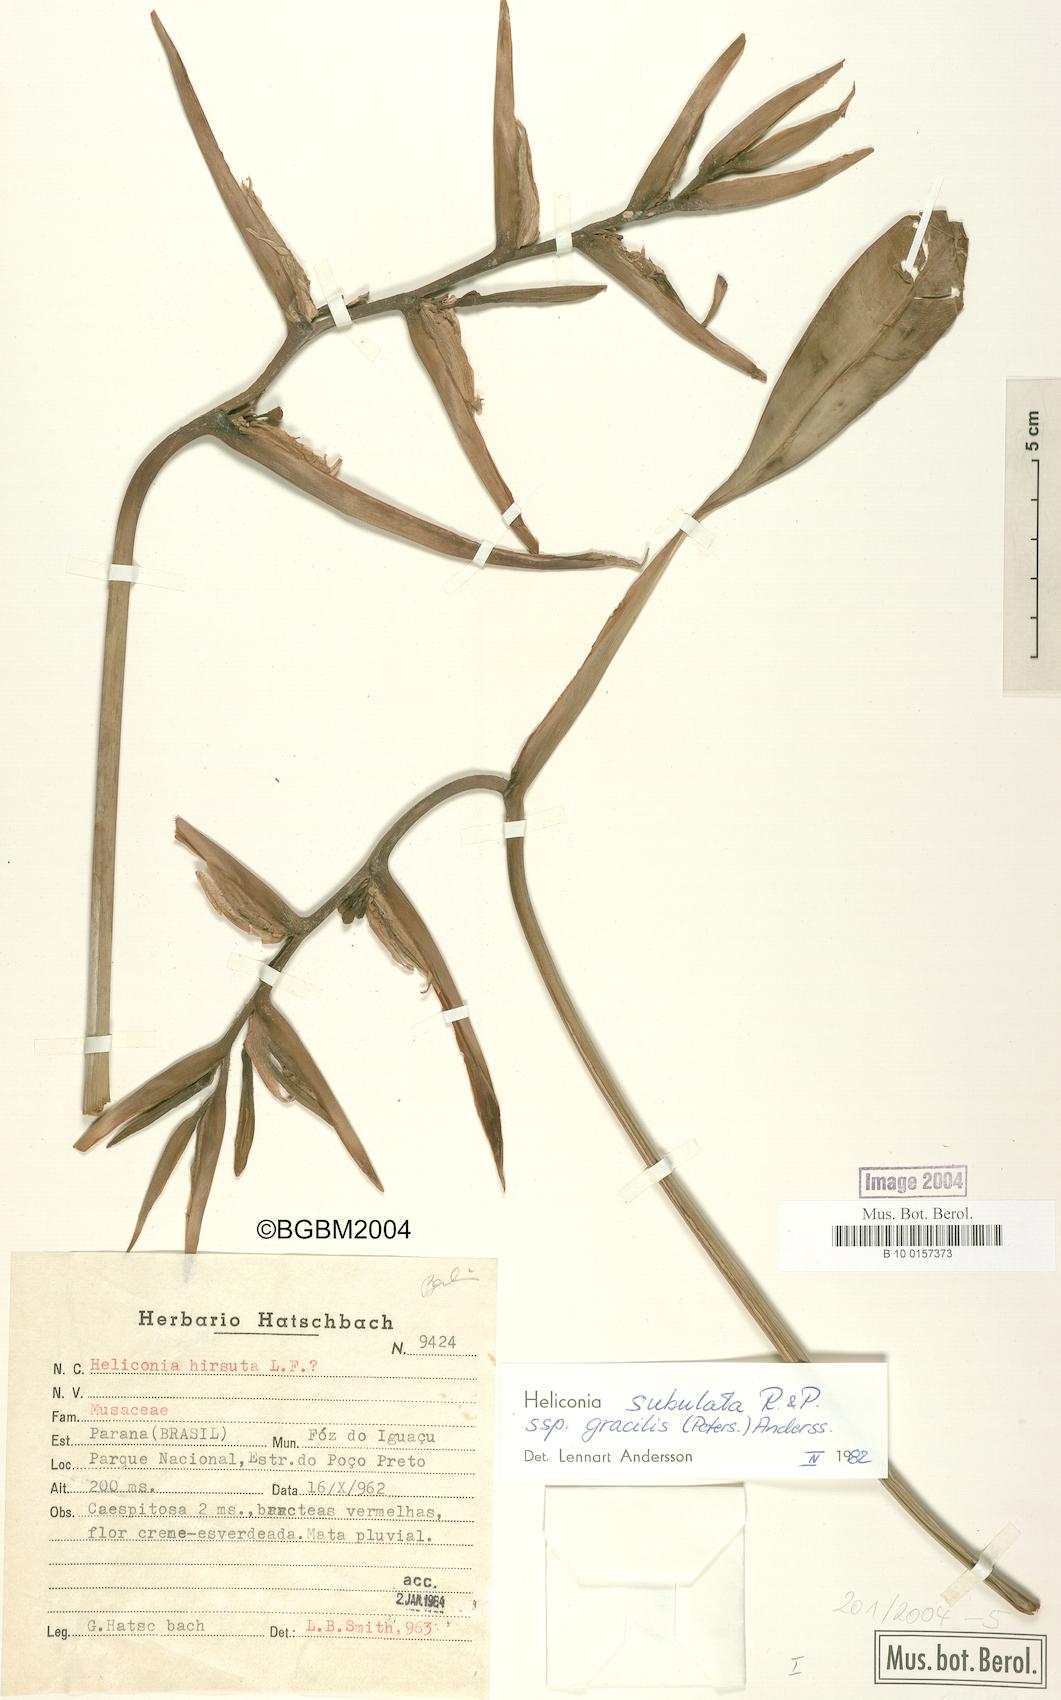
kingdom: Plantae
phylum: Tracheophyta
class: Liliopsida
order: Zingiberales
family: Heliconiaceae
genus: Heliconia
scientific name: Heliconia subulata
